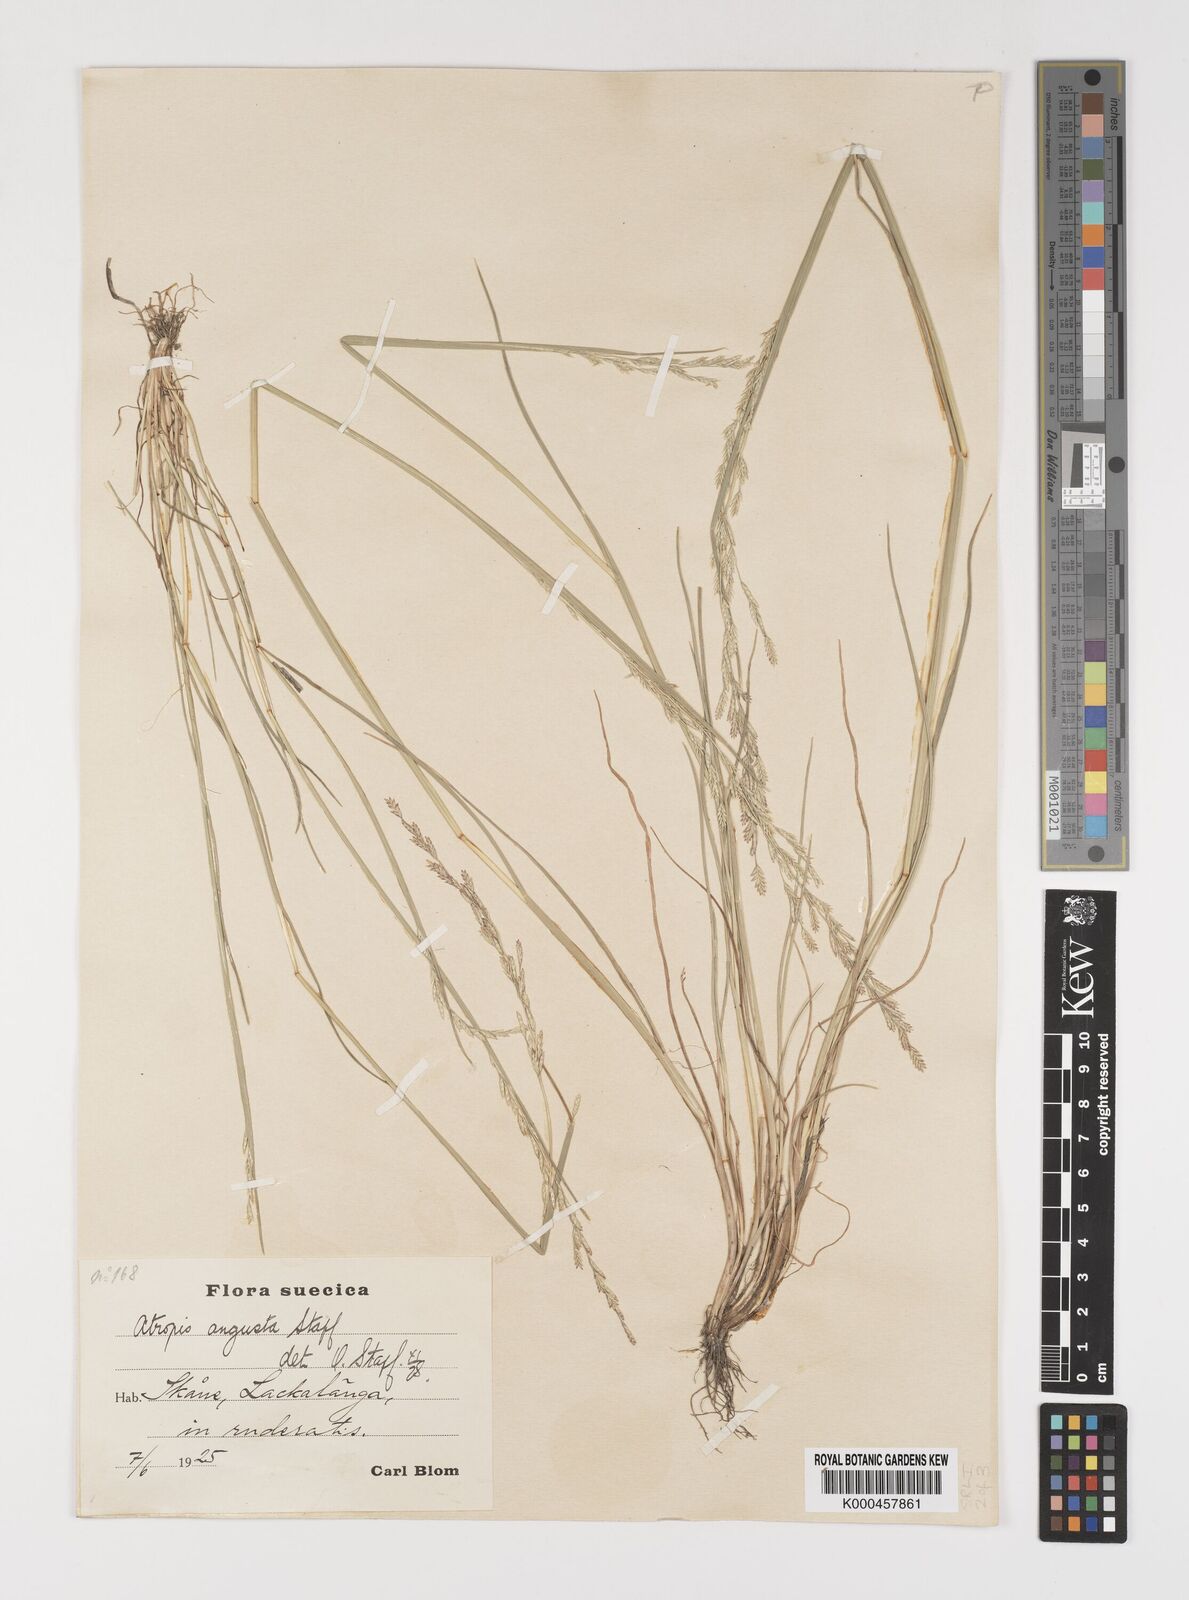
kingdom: Plantae
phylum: Tracheophyta
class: Liliopsida
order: Poales
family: Poaceae
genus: Puccinellia
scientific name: Puccinellia angustata
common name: Narrow alkaligrass
